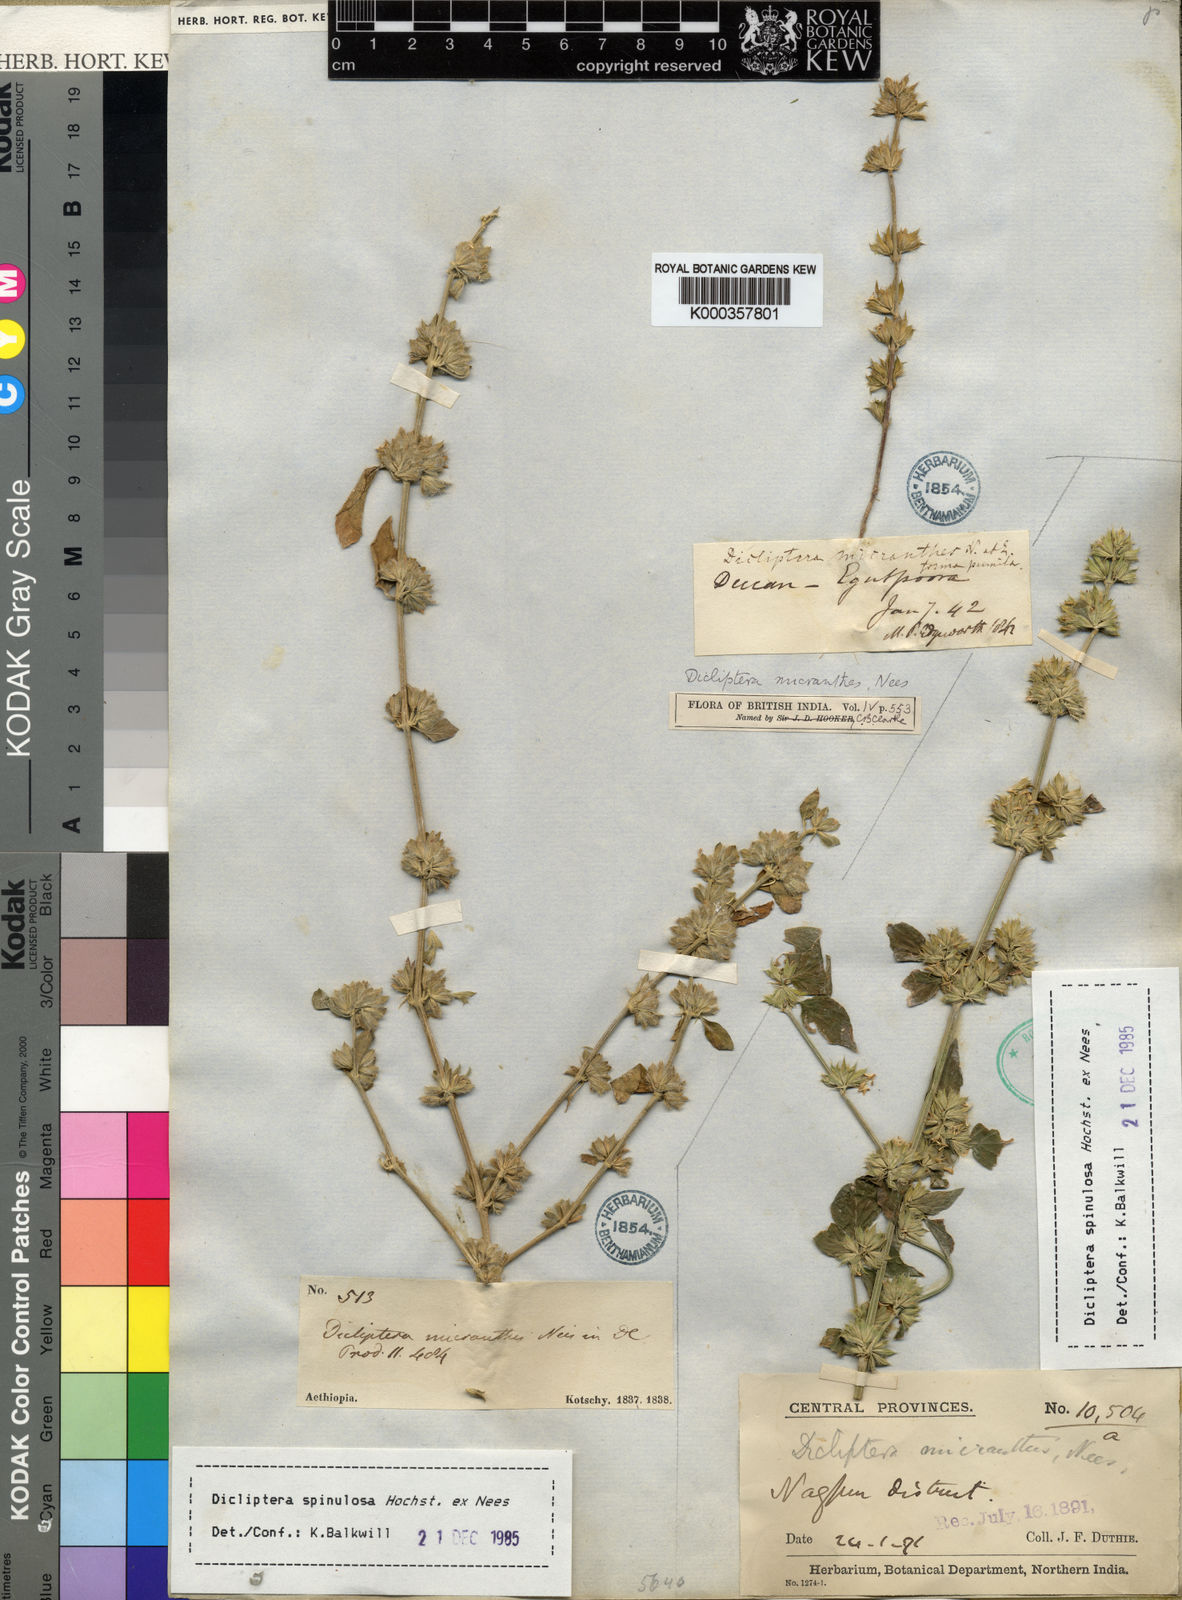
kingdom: Plantae
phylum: Tracheophyta
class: Magnoliopsida
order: Lamiales
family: Acanthaceae
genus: Dicliptera
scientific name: Dicliptera heterostegia
